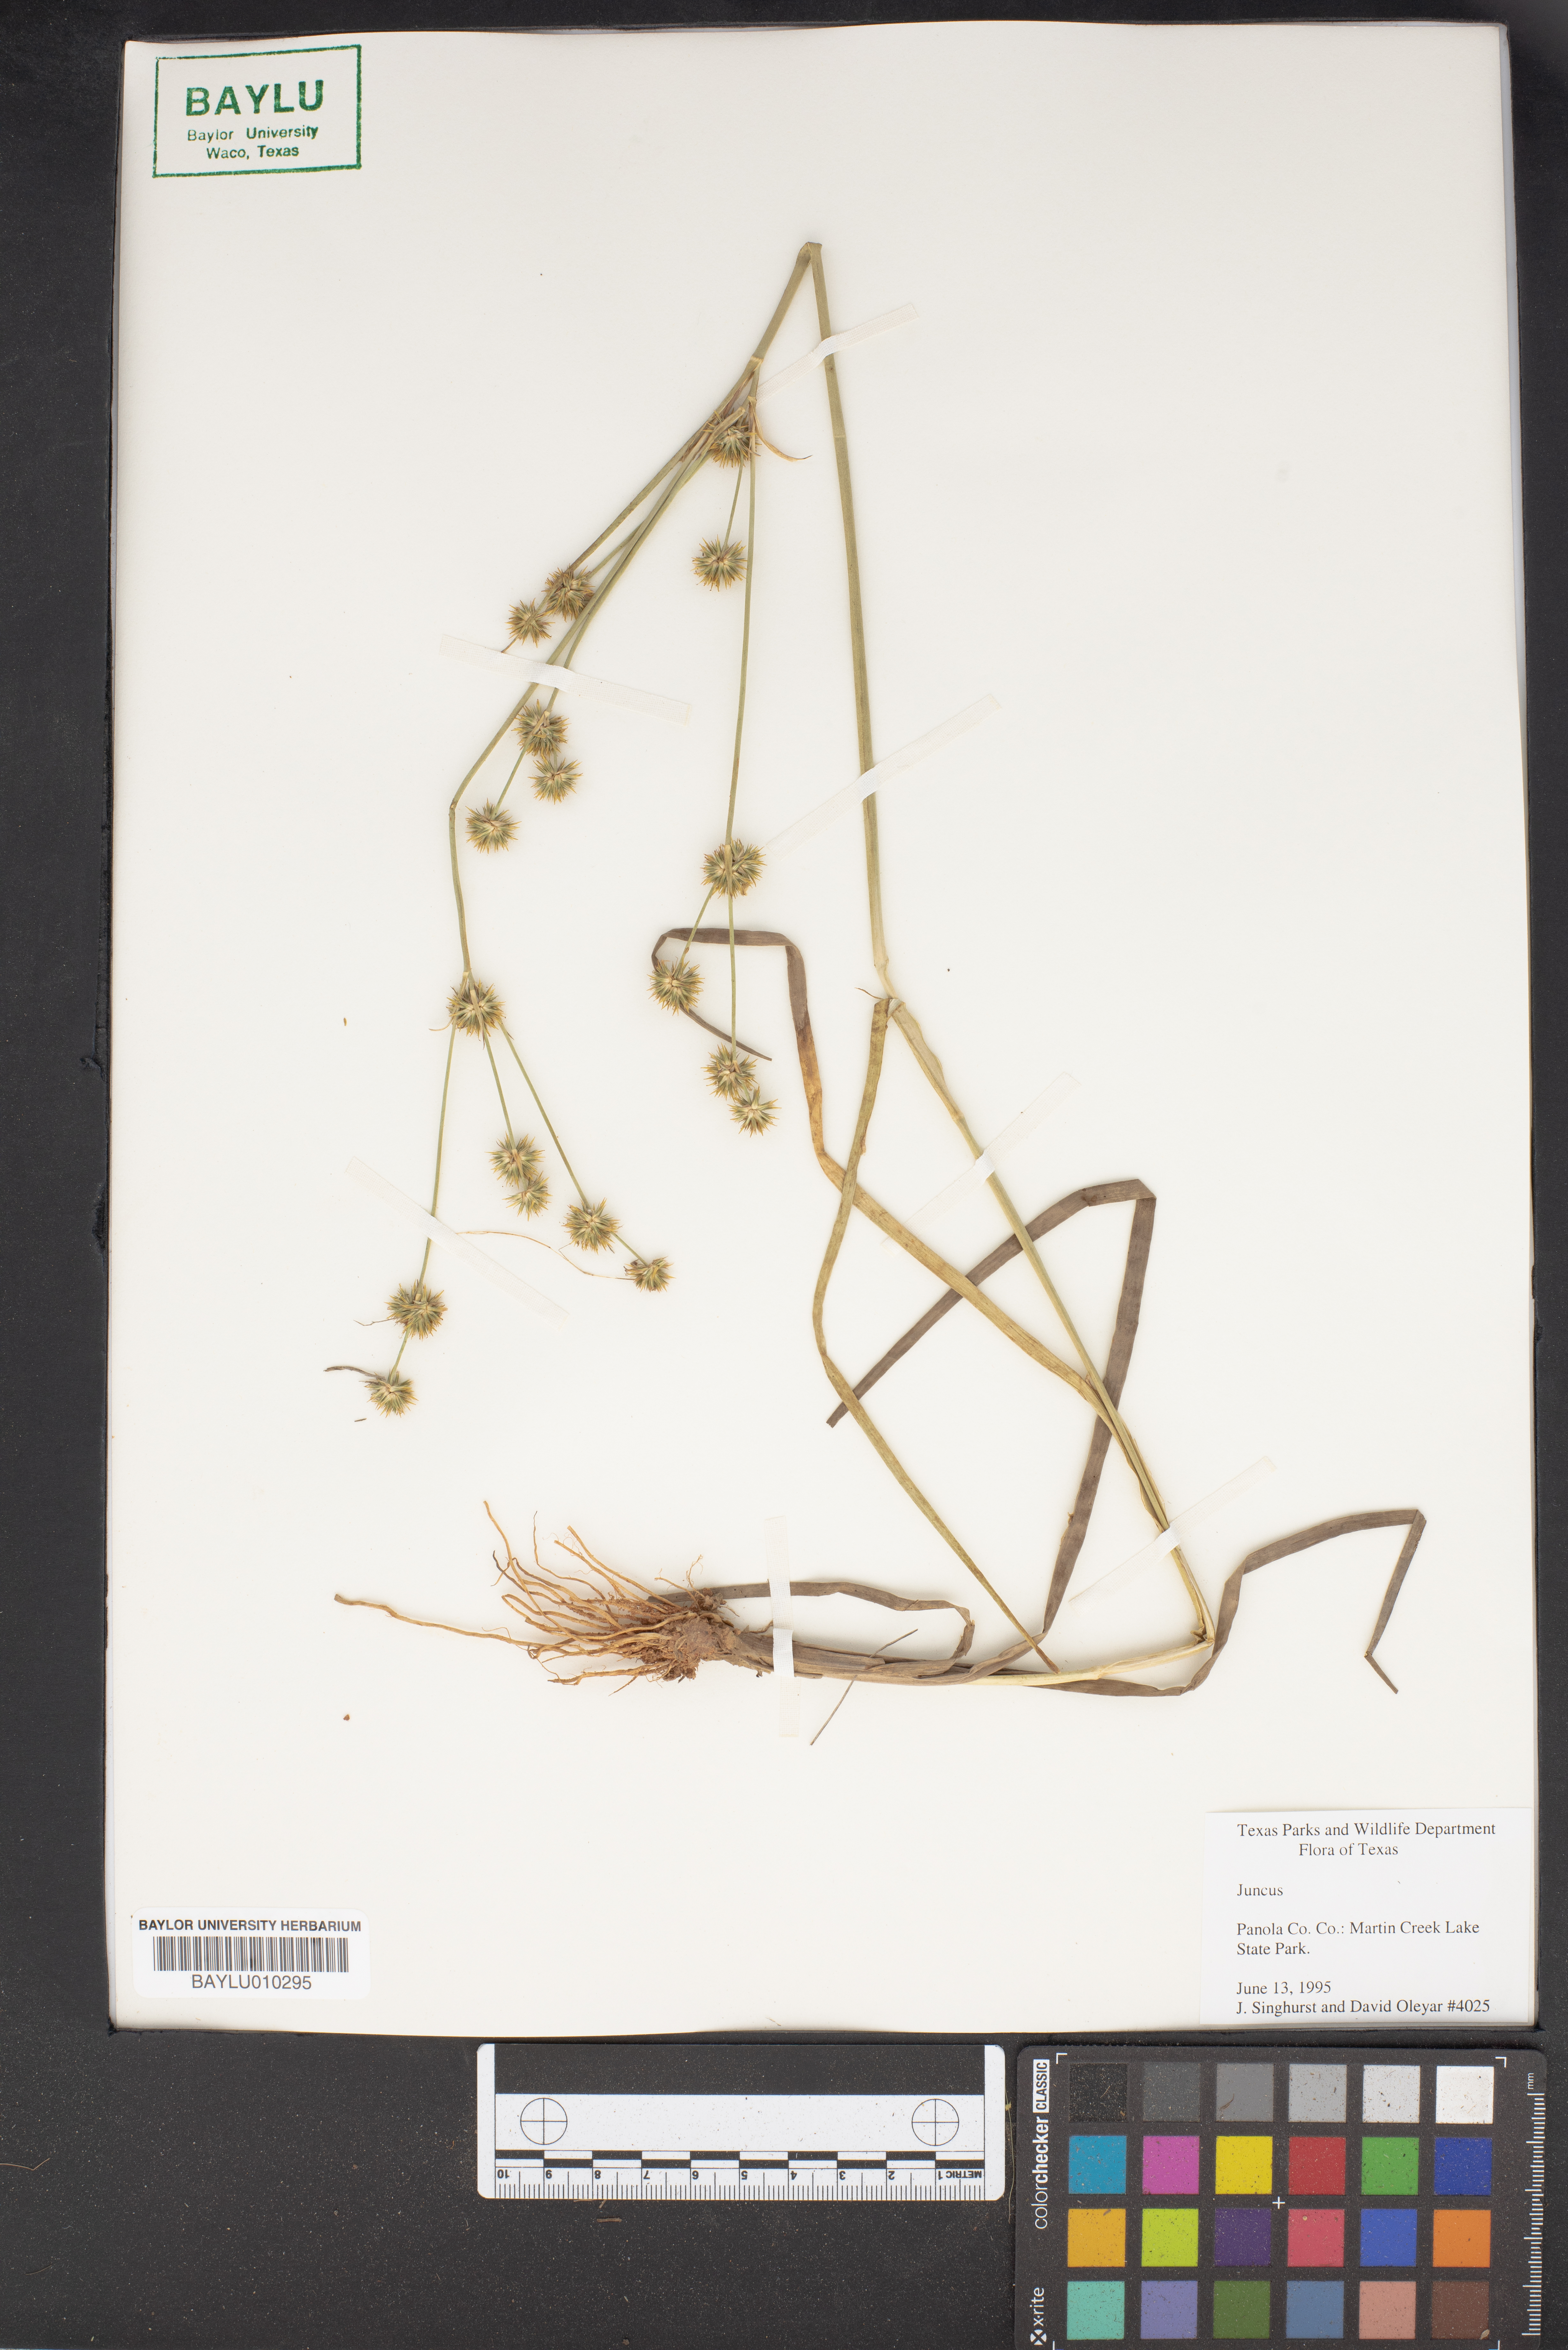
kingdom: Plantae
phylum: Tracheophyta
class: Liliopsida
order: Poales
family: Juncaceae
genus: Juncus
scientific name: Juncus
